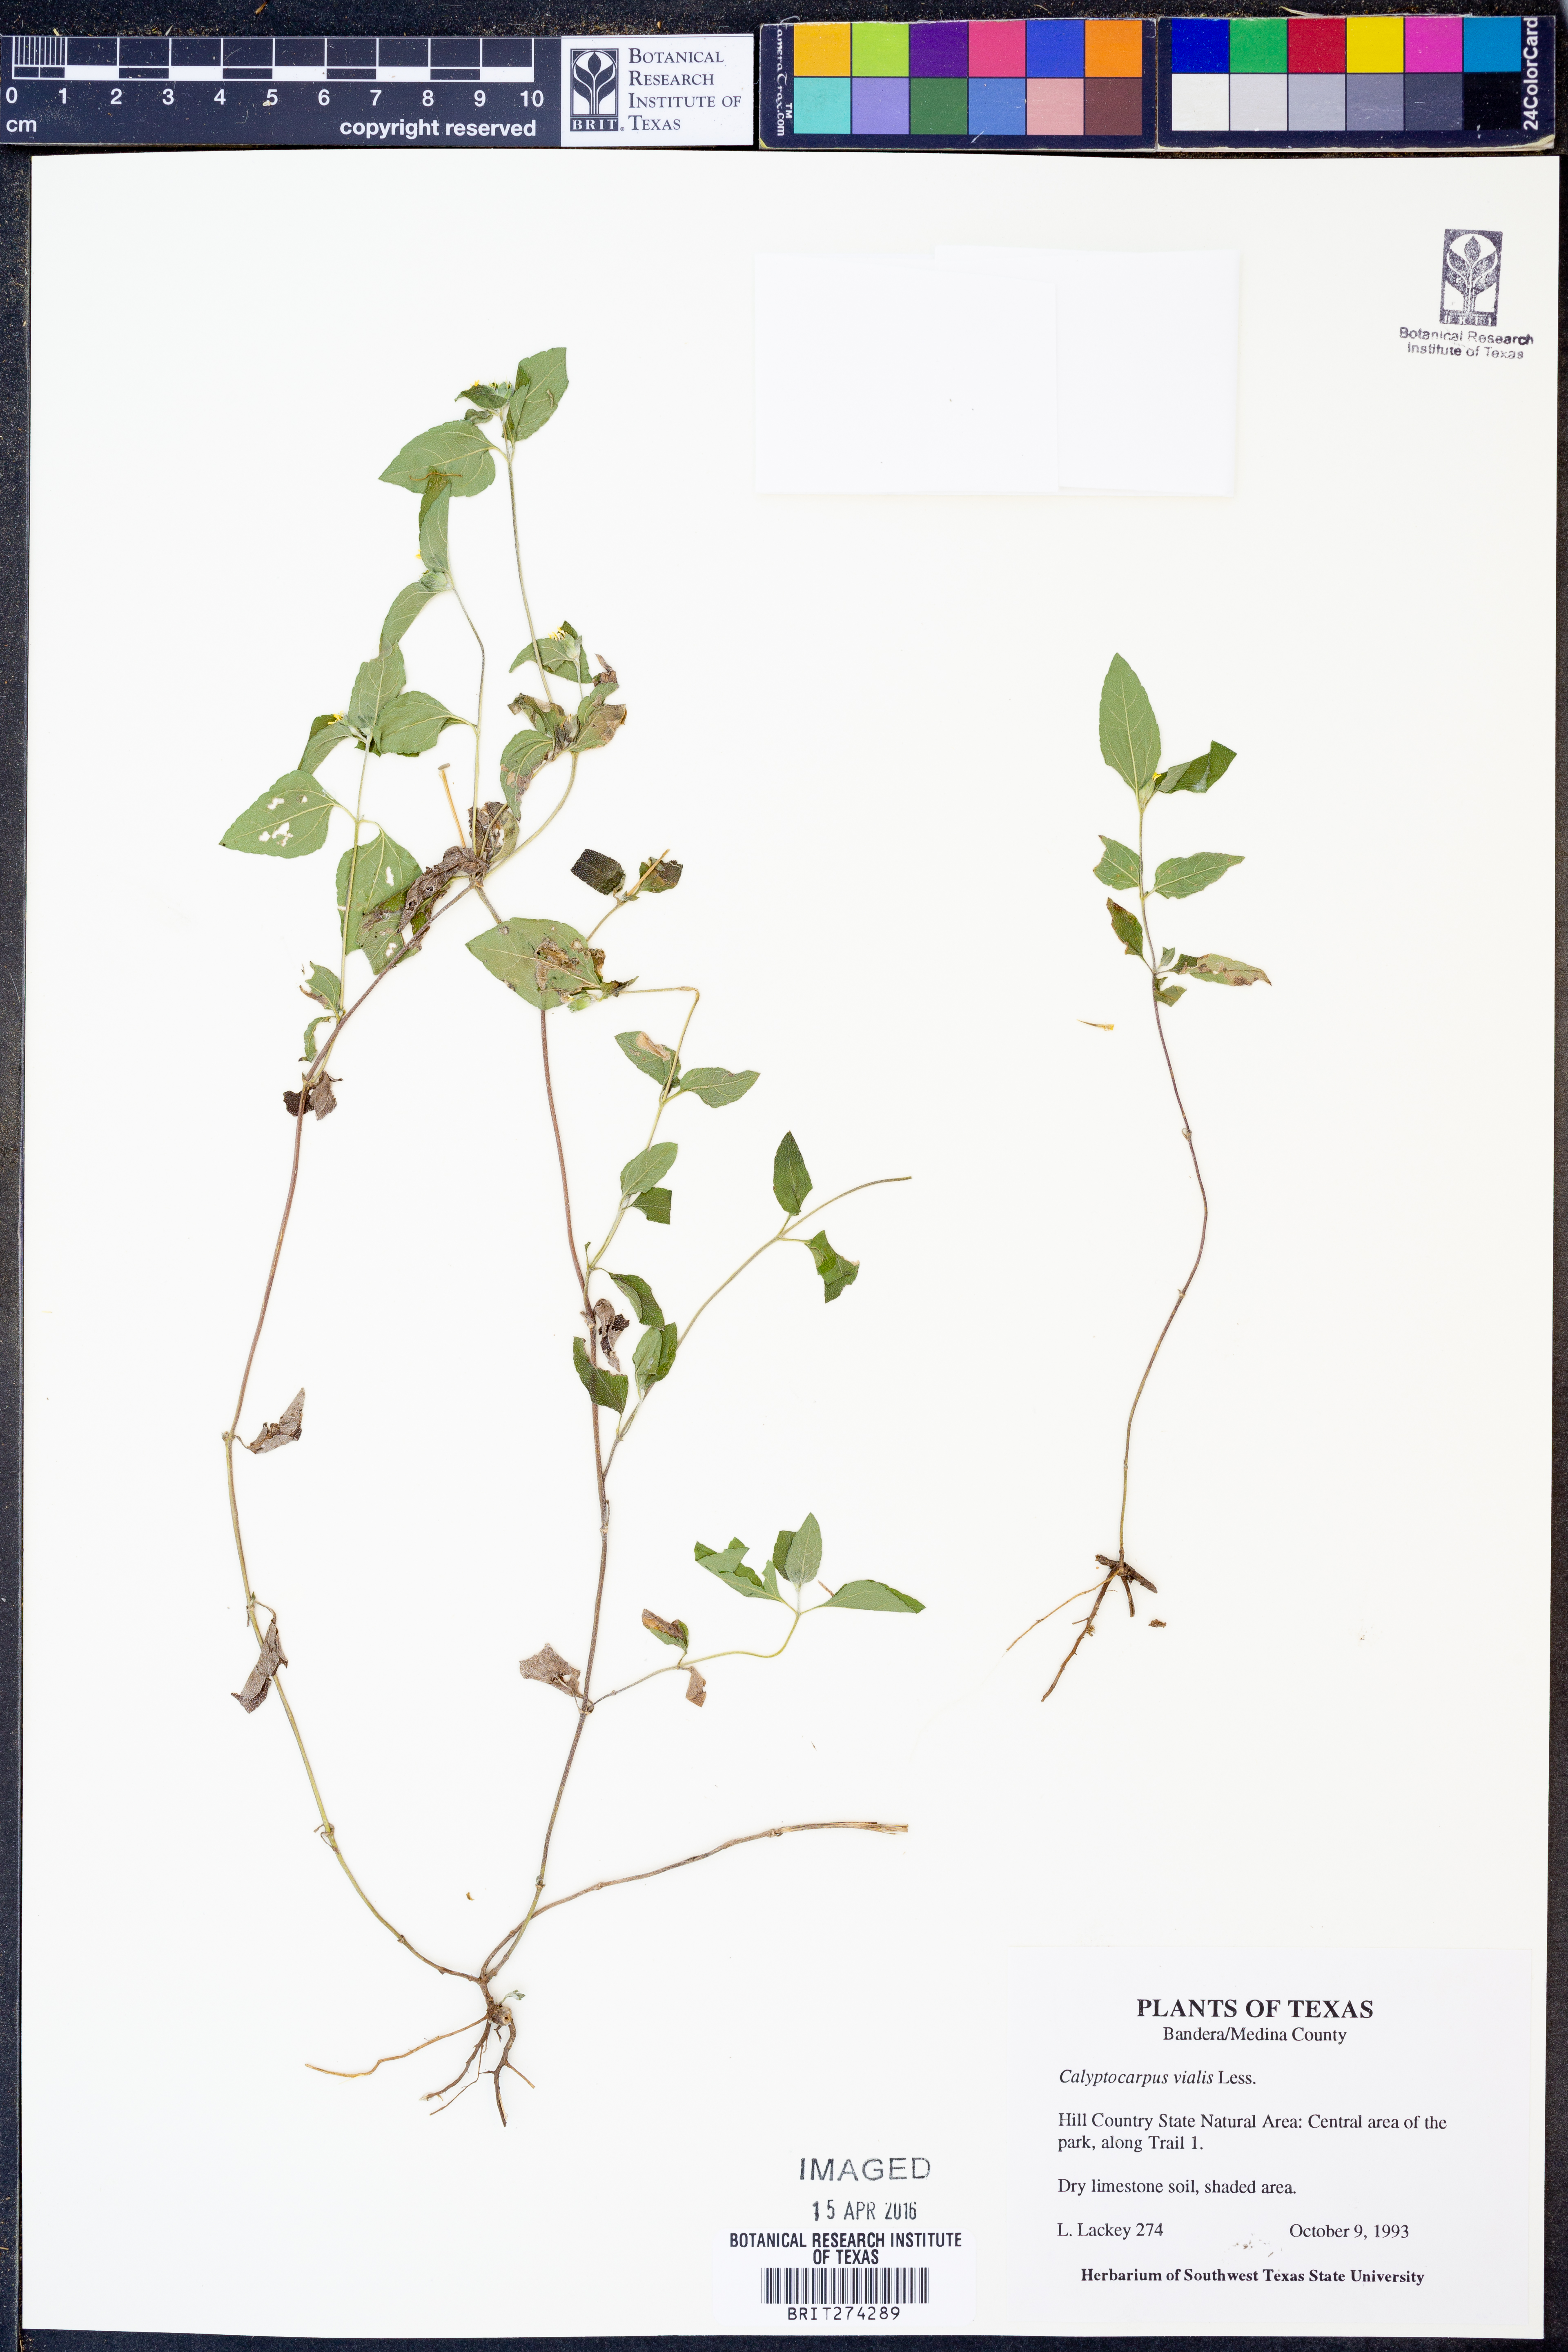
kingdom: Plantae
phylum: Tracheophyta
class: Magnoliopsida
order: Asterales
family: Asteraceae
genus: Calyptocarpus
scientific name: Calyptocarpus vialis
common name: Straggler daisy
